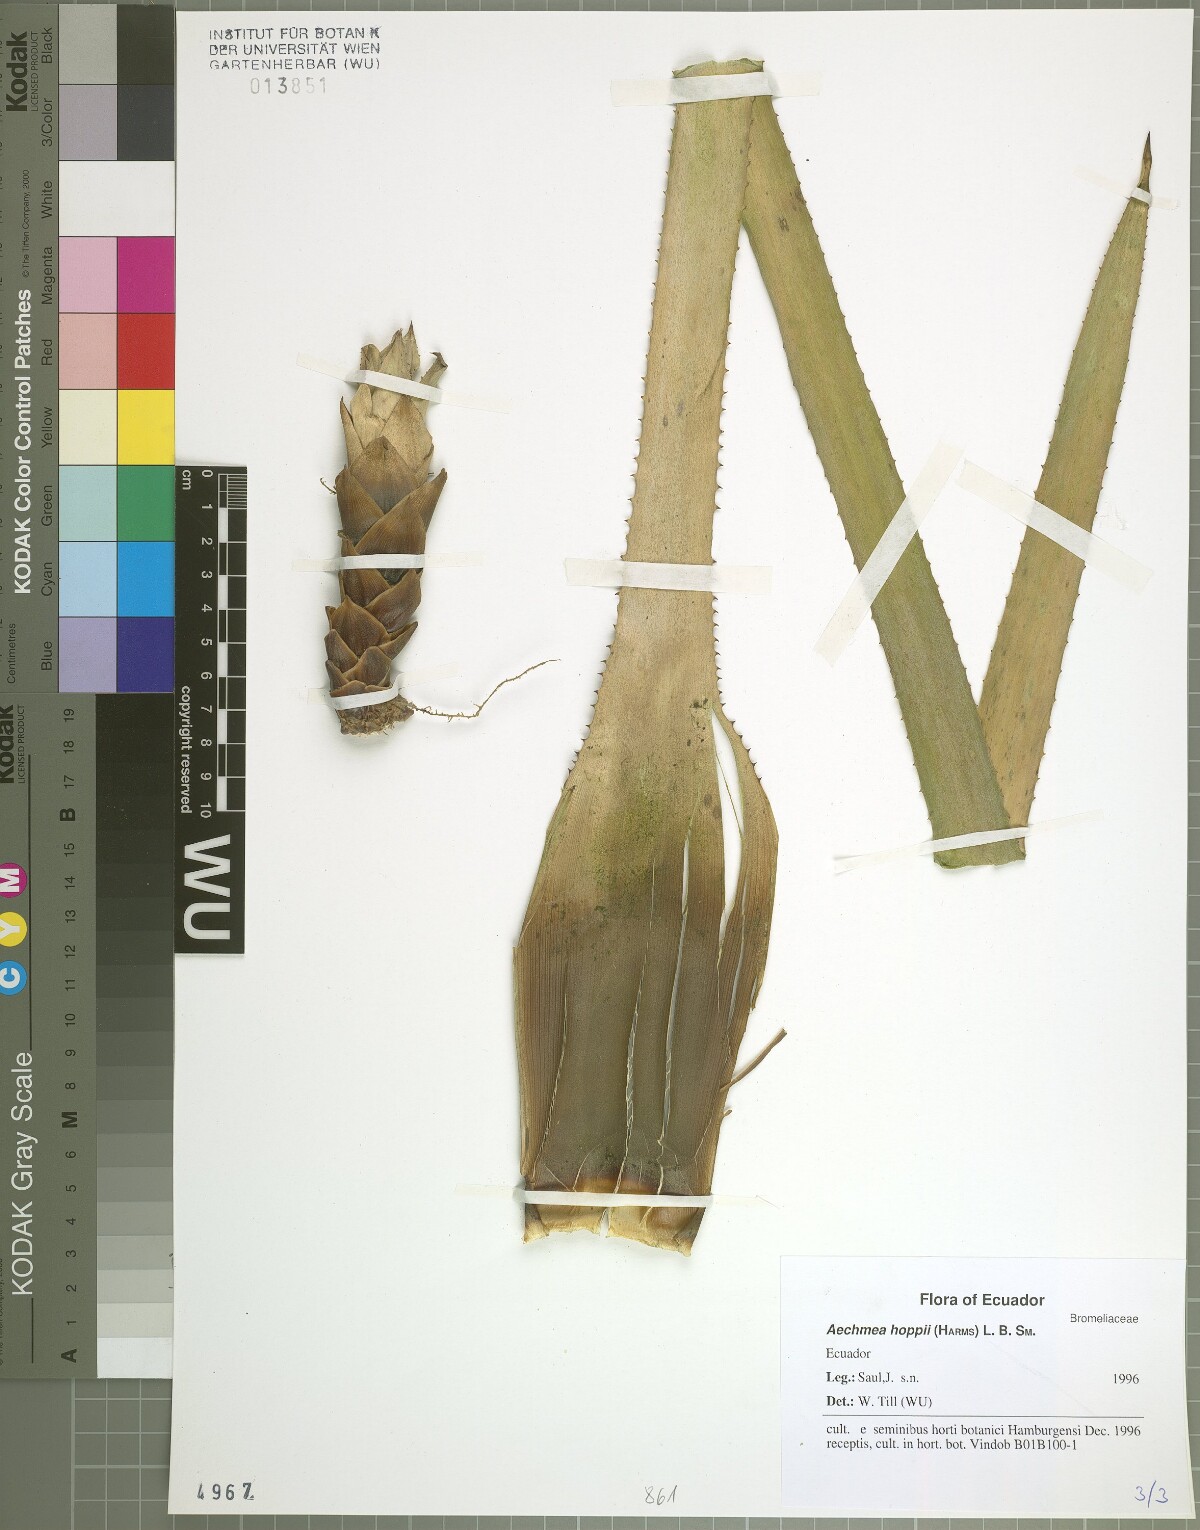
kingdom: Plantae
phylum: Tracheophyta
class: Liliopsida
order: Poales
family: Bromeliaceae
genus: Aechmea
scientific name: Aechmea hoppii
